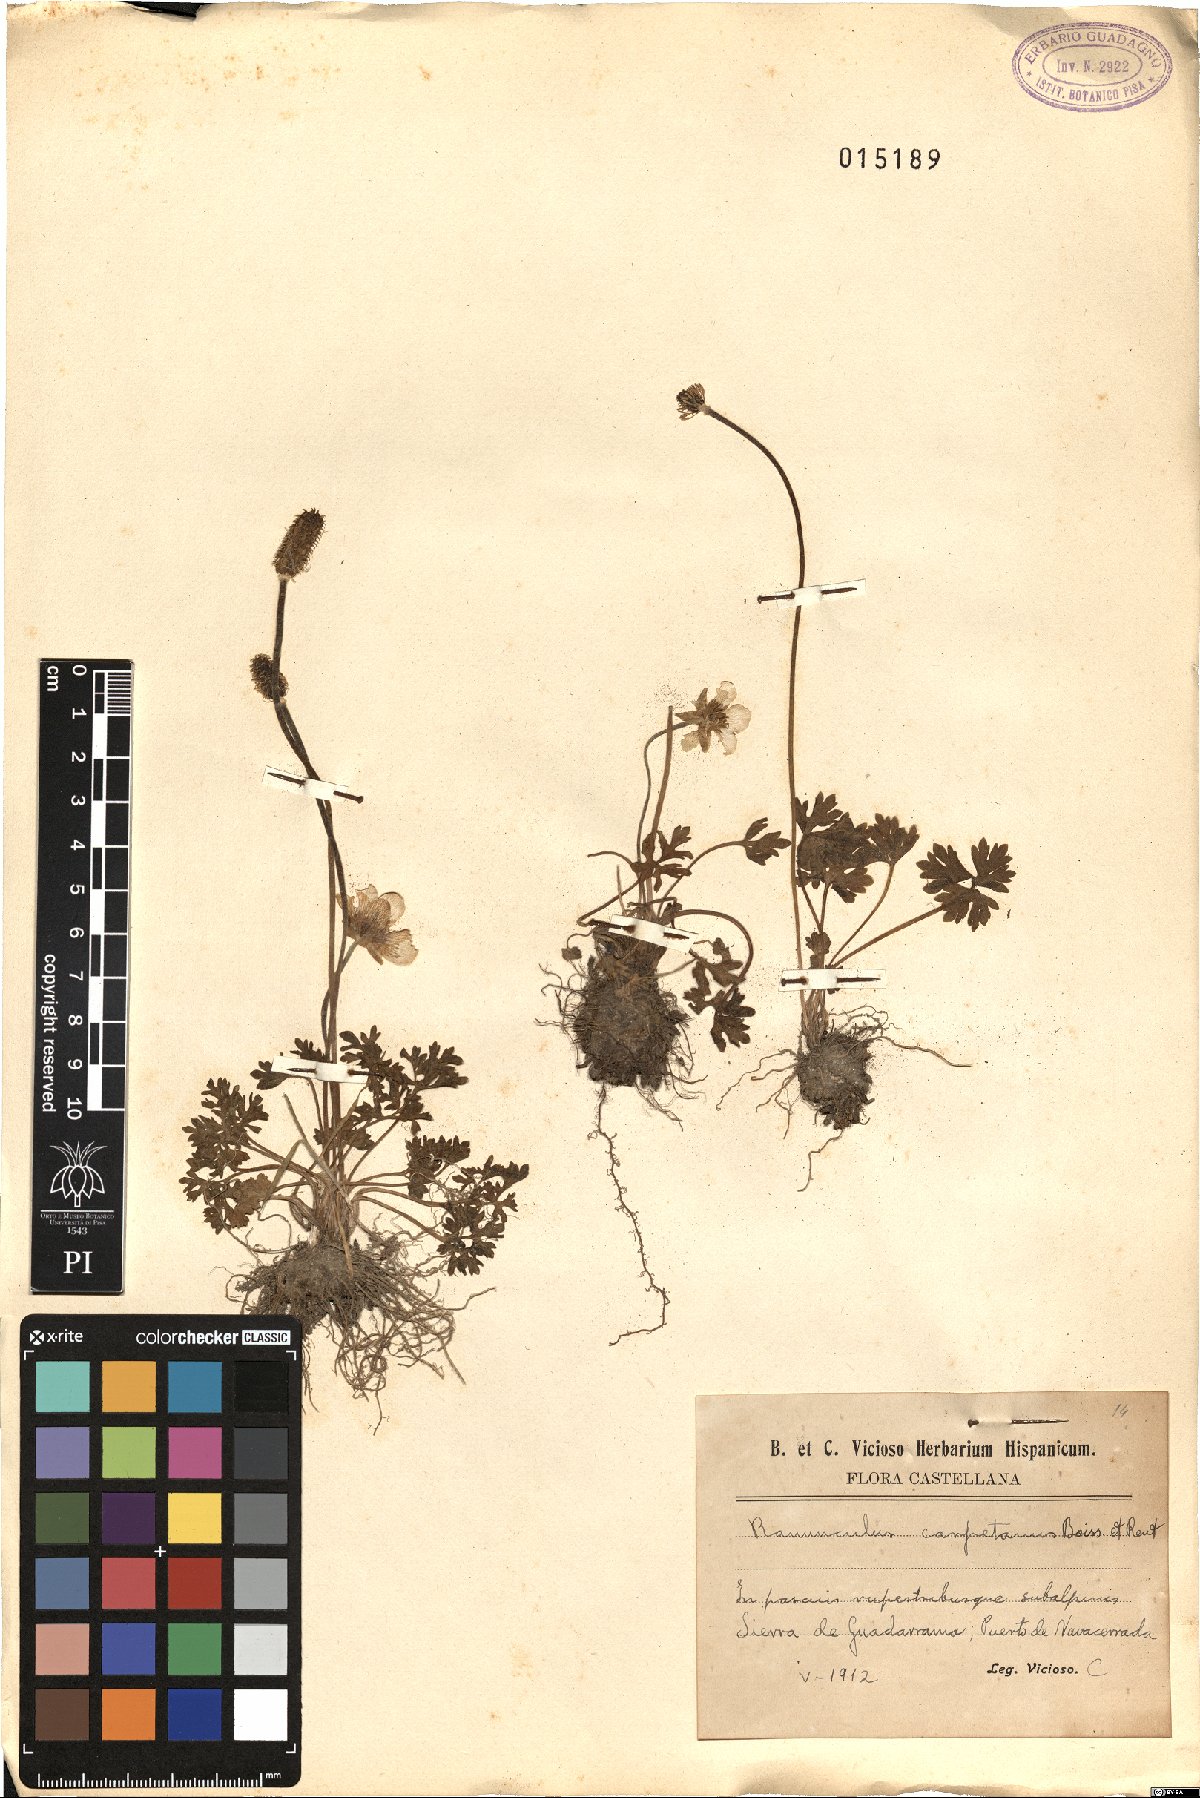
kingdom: Plantae
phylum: Tracheophyta
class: Magnoliopsida
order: Ranunculales
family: Ranunculaceae
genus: Ranunculus
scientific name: Ranunculus ollissiponensis
